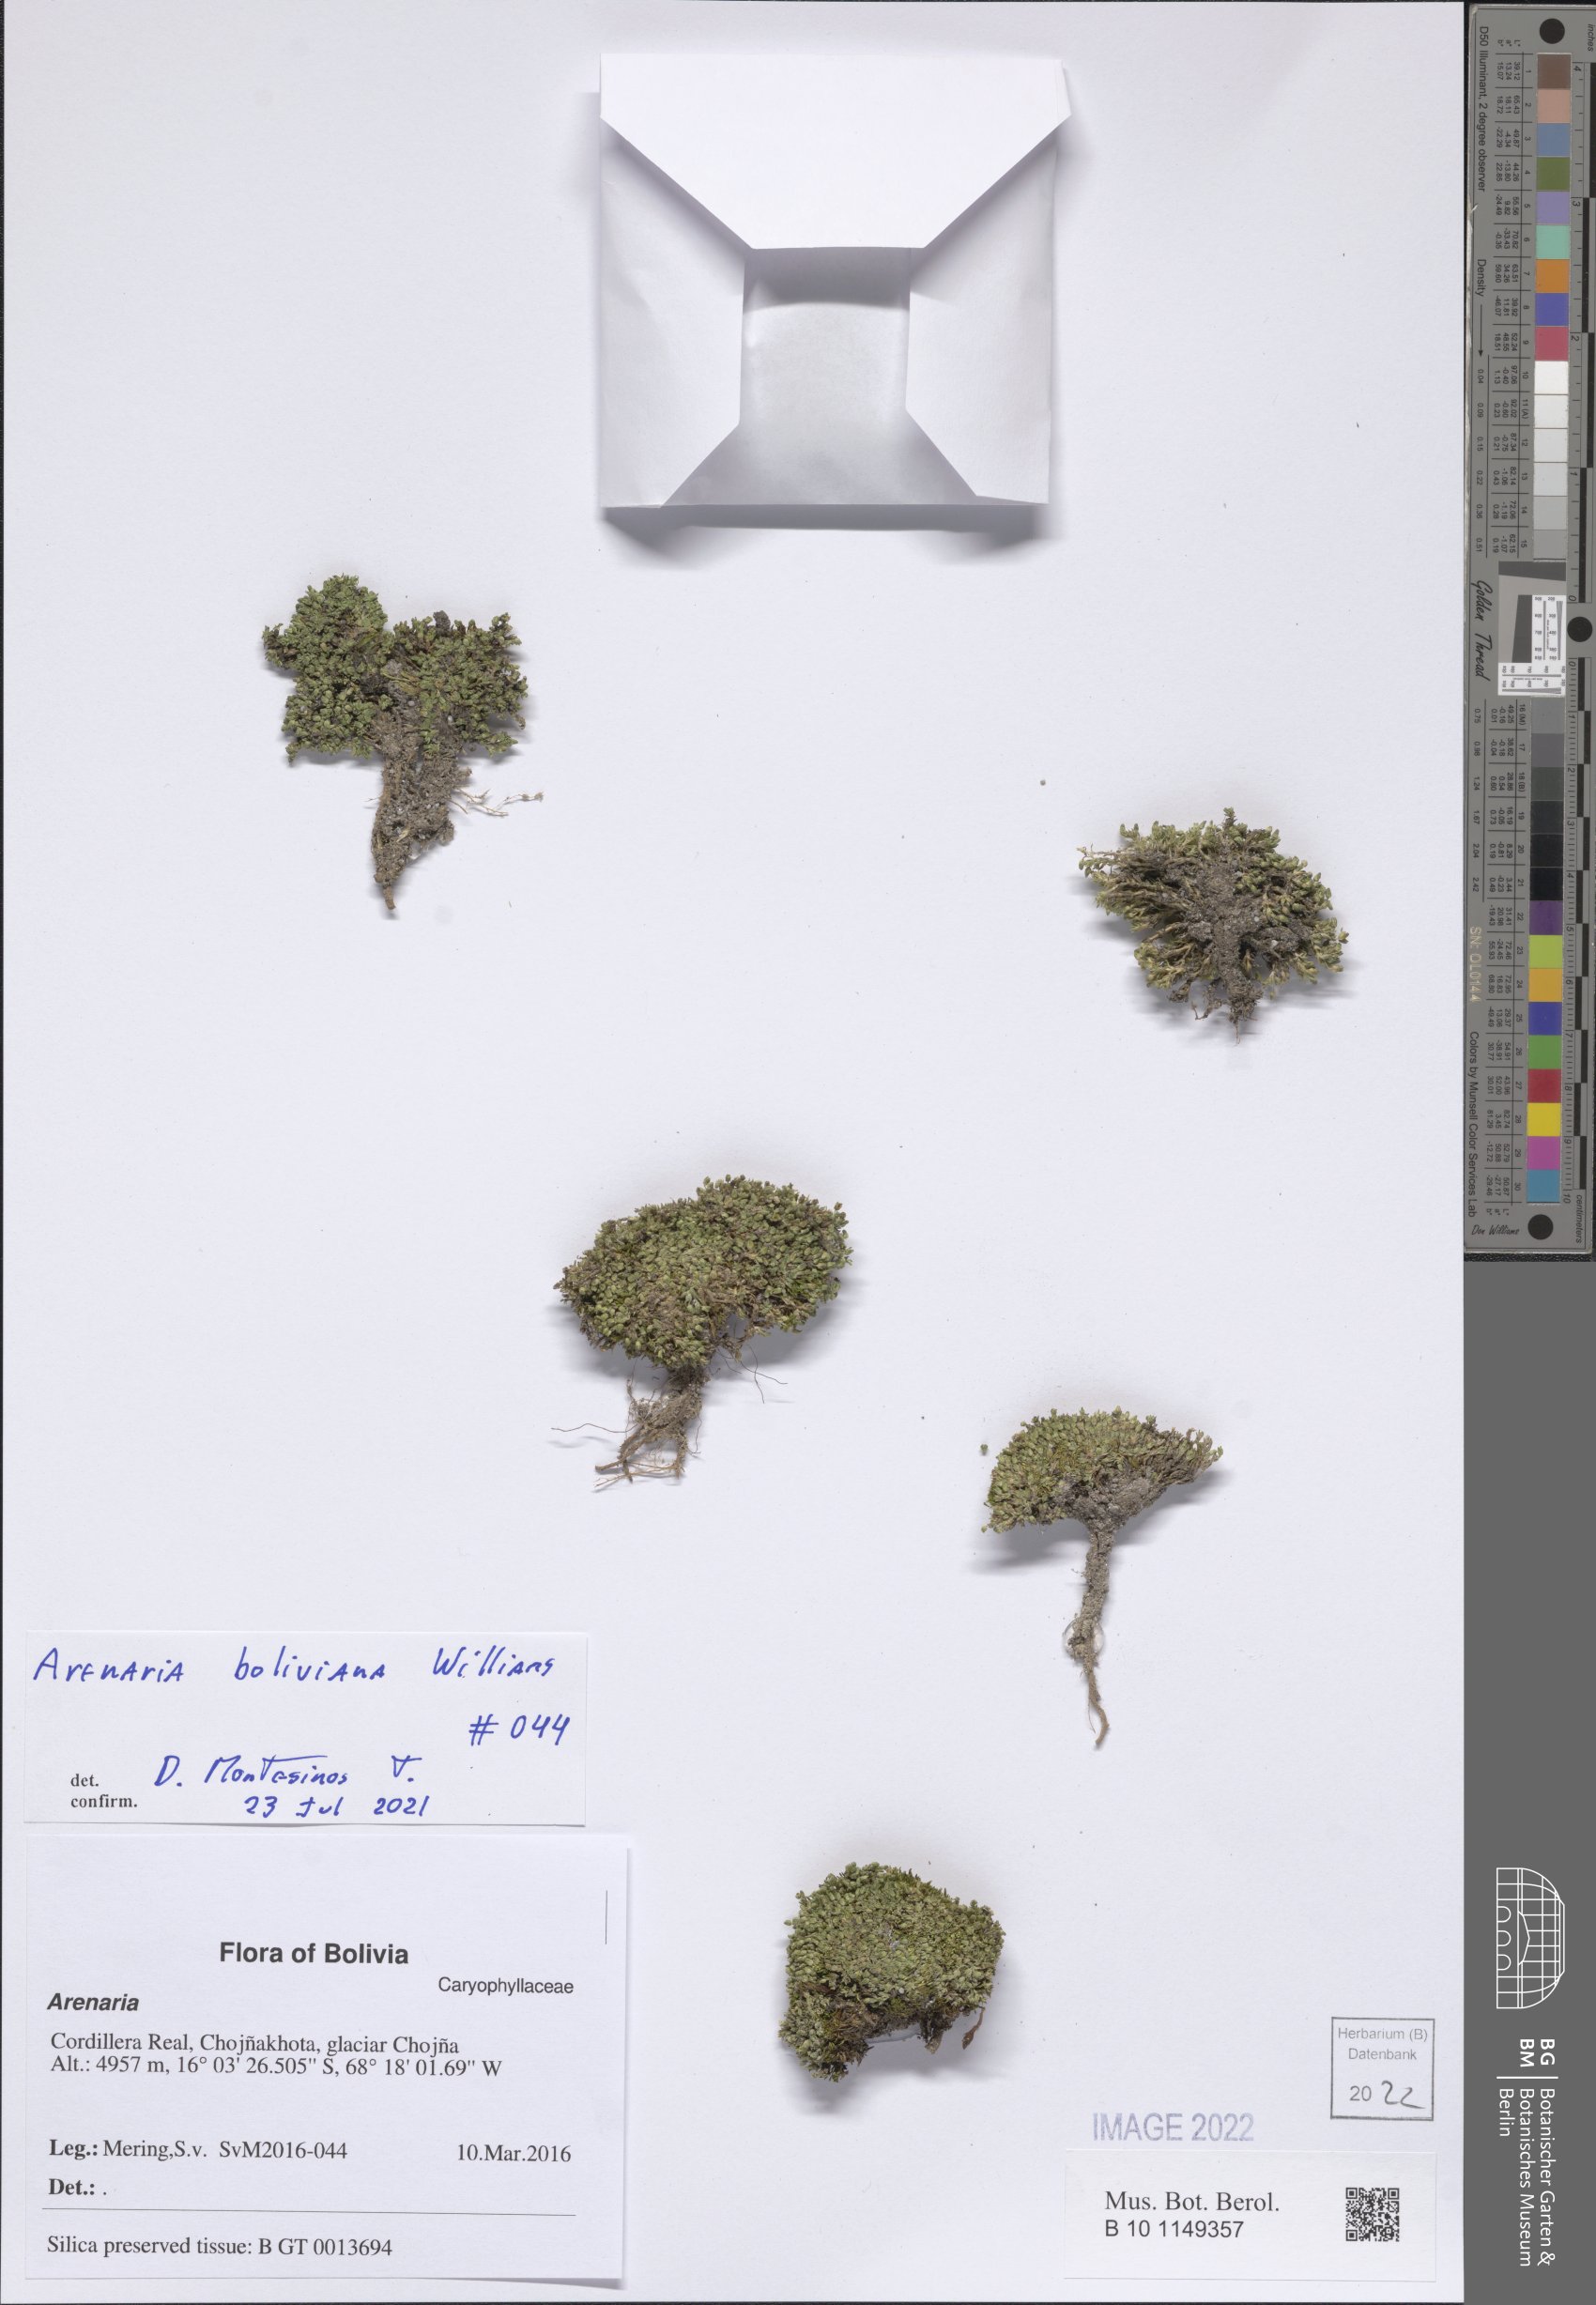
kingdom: Plantae
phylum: Tracheophyta
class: Magnoliopsida
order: Caryophyllales
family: Caryophyllaceae
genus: Arenaria
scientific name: Arenaria boliviana
